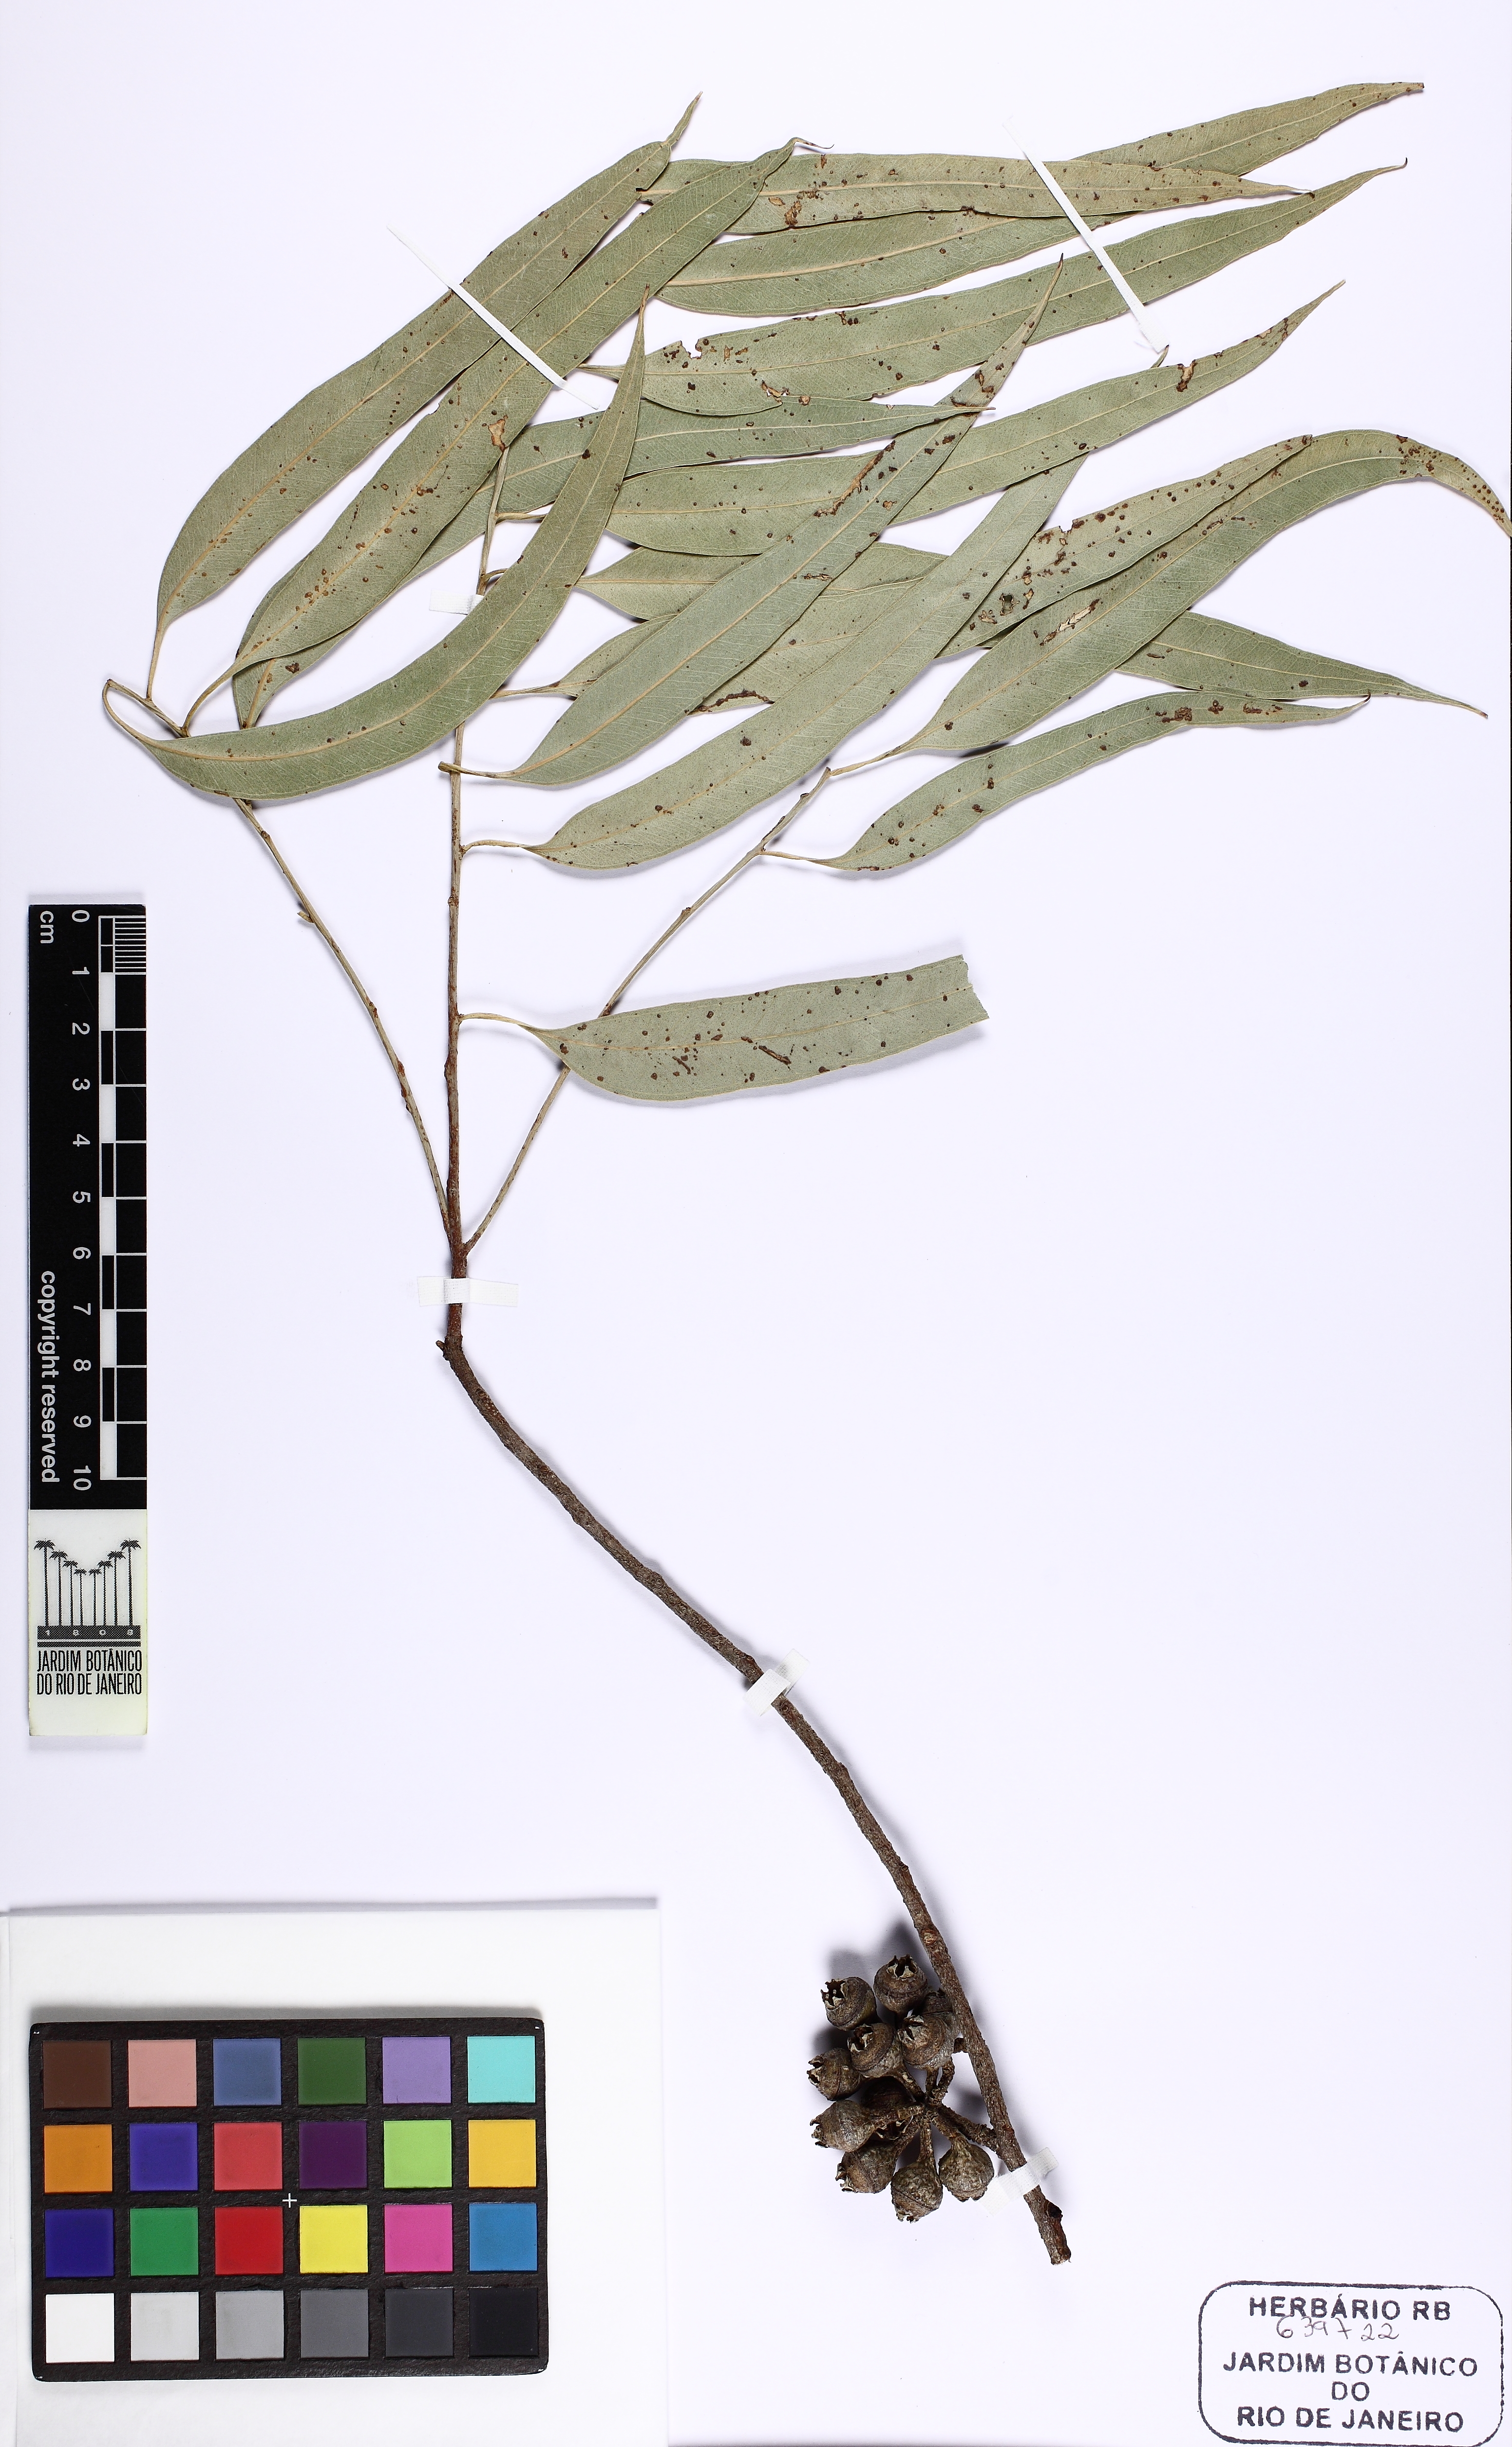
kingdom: Plantae
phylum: Tracheophyta
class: Magnoliopsida
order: Myrtales
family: Myrtaceae
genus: Eucalyptus
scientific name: Eucalyptus brassiana
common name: Cape-york-gum
